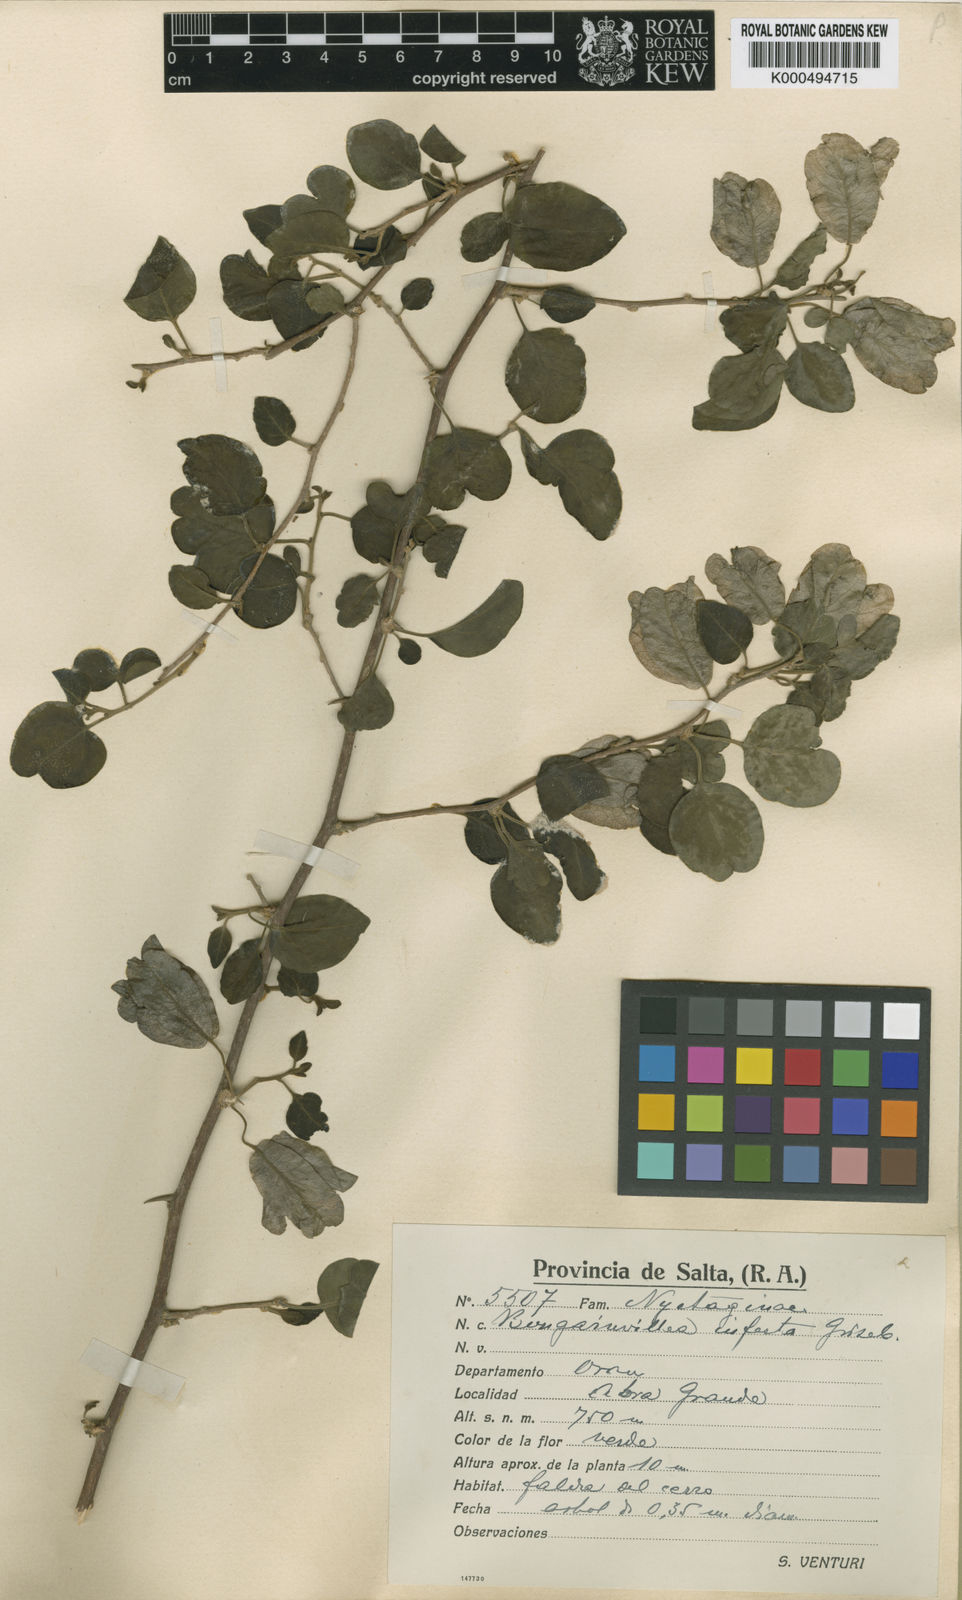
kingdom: Plantae
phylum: Tracheophyta
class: Magnoliopsida
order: Caryophyllales
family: Nyctaginaceae
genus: Bougainvillea
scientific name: Bougainvillea infesta
